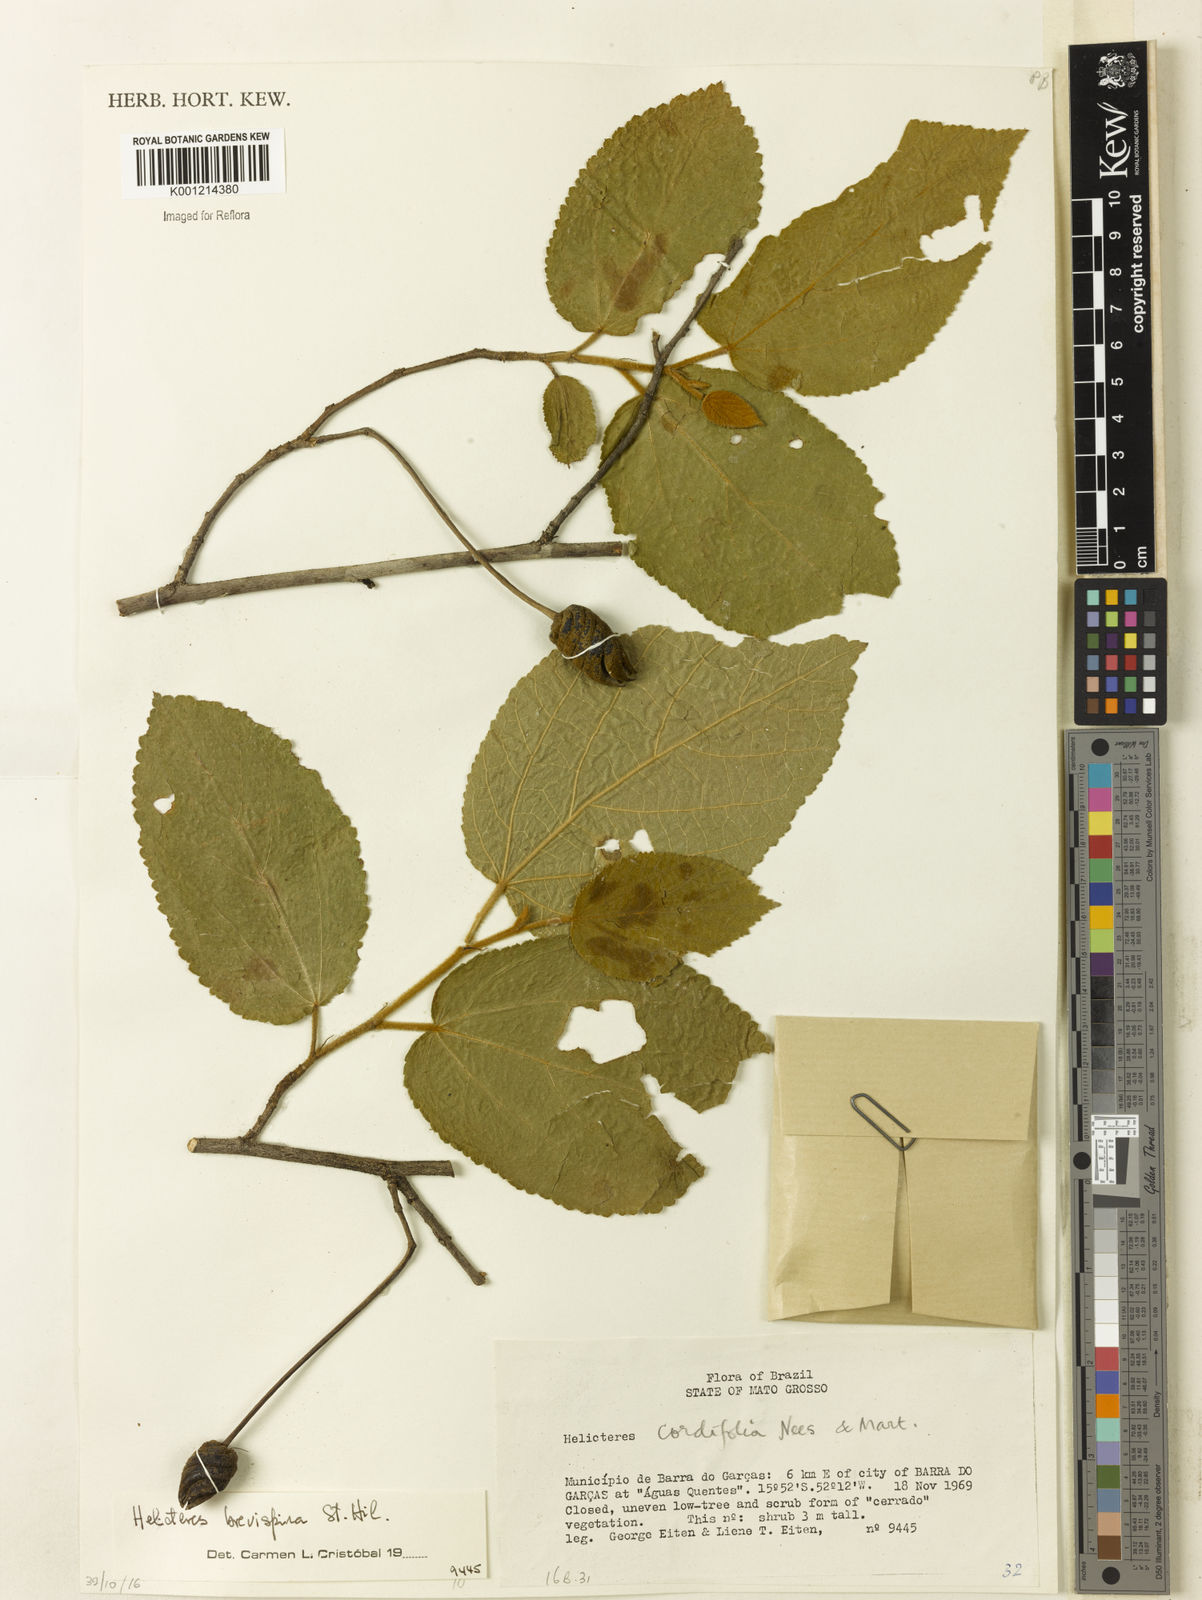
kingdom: Plantae
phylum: Tracheophyta
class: Magnoliopsida
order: Malvales
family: Malvaceae
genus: Helicteres
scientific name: Helicteres
